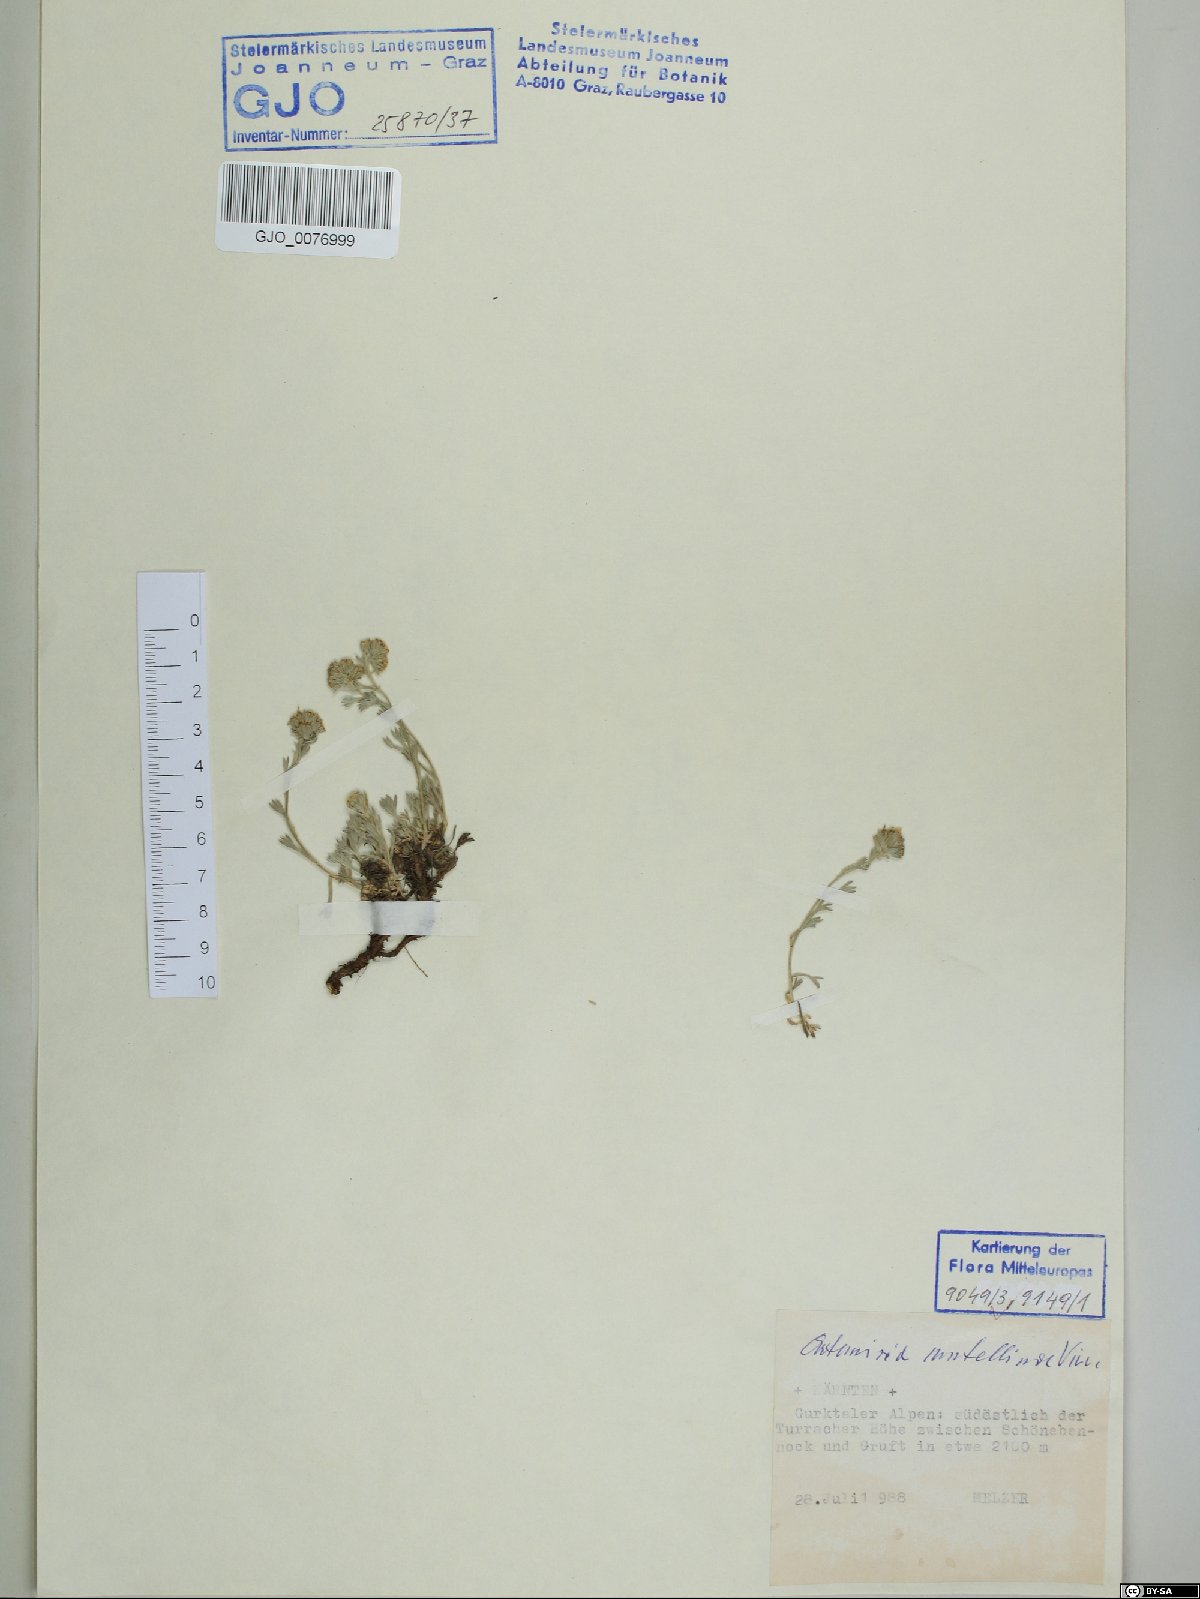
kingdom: Plantae
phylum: Tracheophyta
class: Magnoliopsida
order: Asterales
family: Asteraceae
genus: Artemisia
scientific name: Artemisia mutellina
